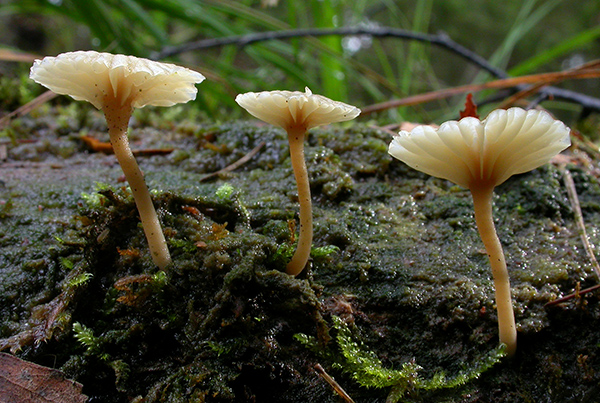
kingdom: Fungi
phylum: Basidiomycota
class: Agaricomycetes
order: Agaricales
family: Hygrophoraceae
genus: Lichenomphalia
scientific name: Lichenomphalia umbellifera
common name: tørve-lavhat
